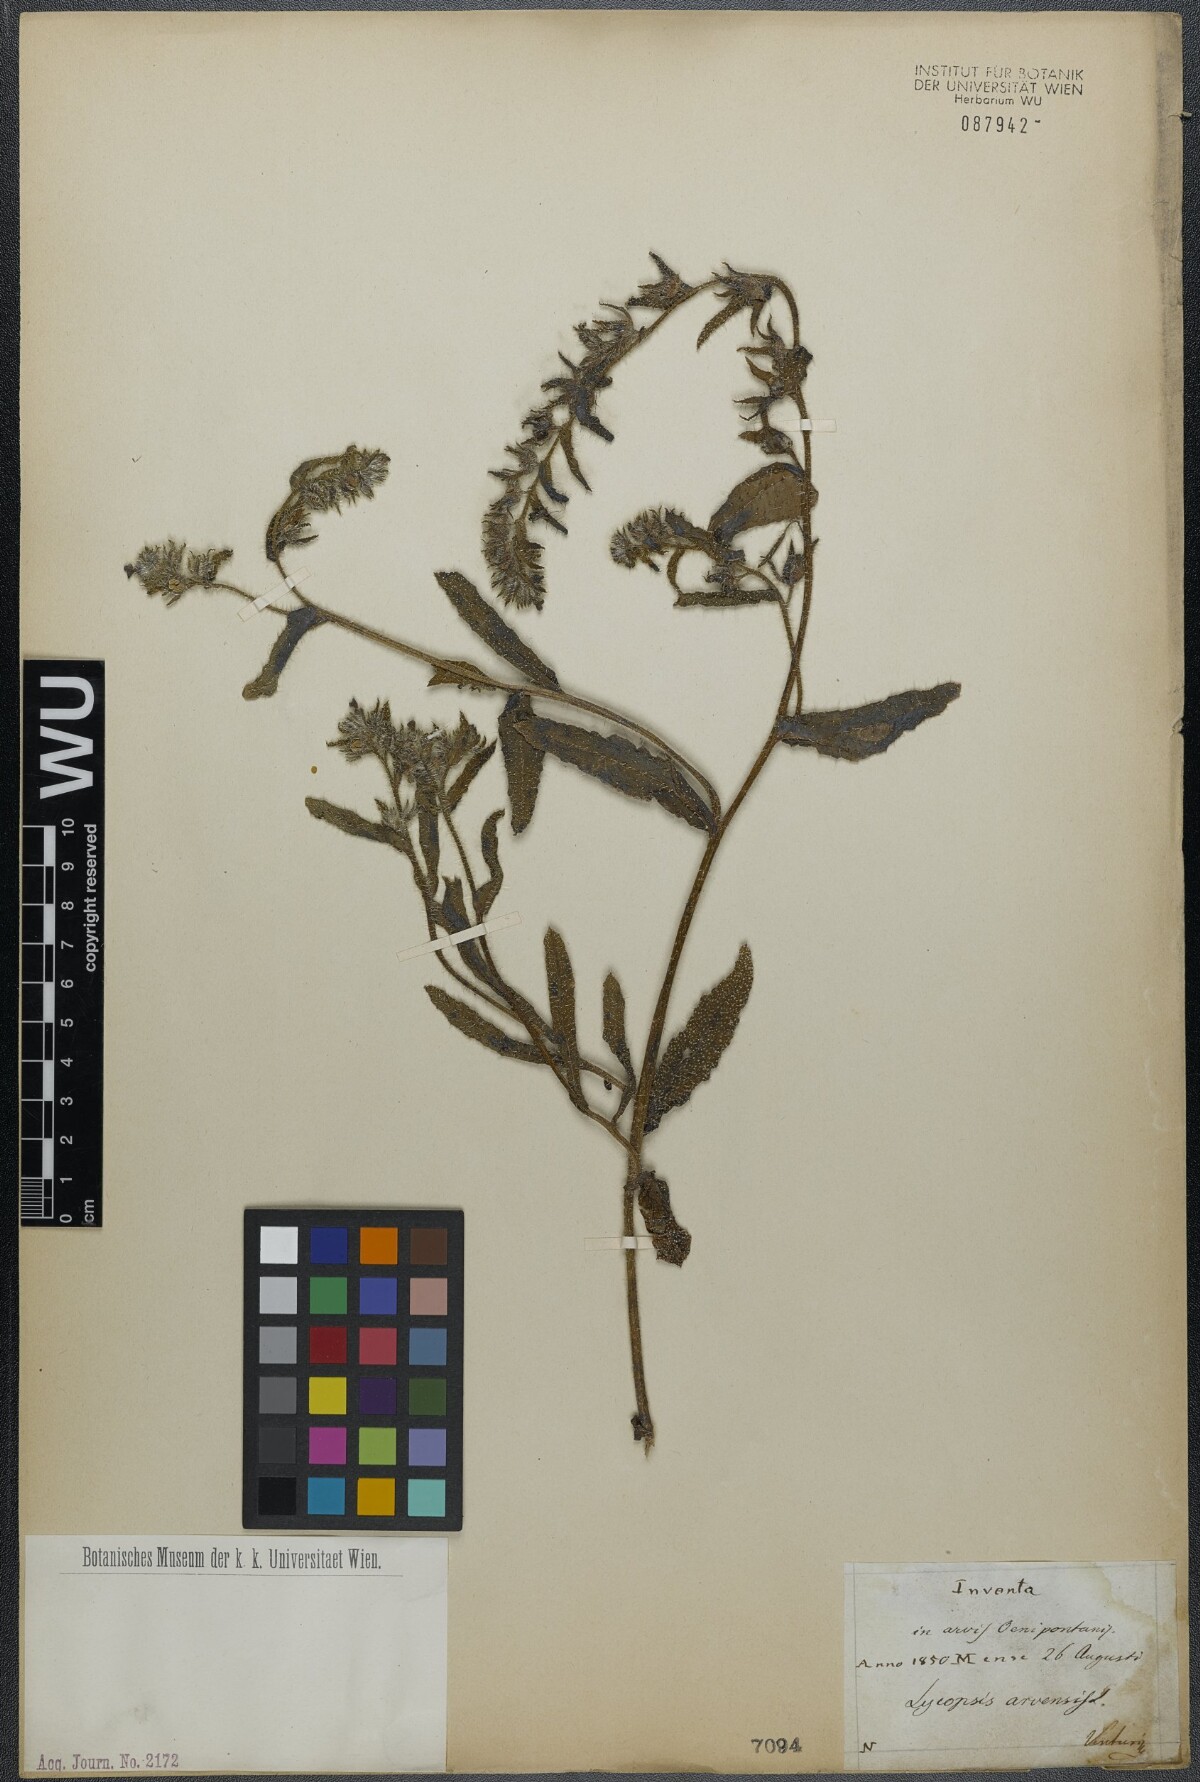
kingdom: Plantae
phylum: Tracheophyta
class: Magnoliopsida
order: Boraginales
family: Boraginaceae
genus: Lycopsis
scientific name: Lycopsis arvensis
